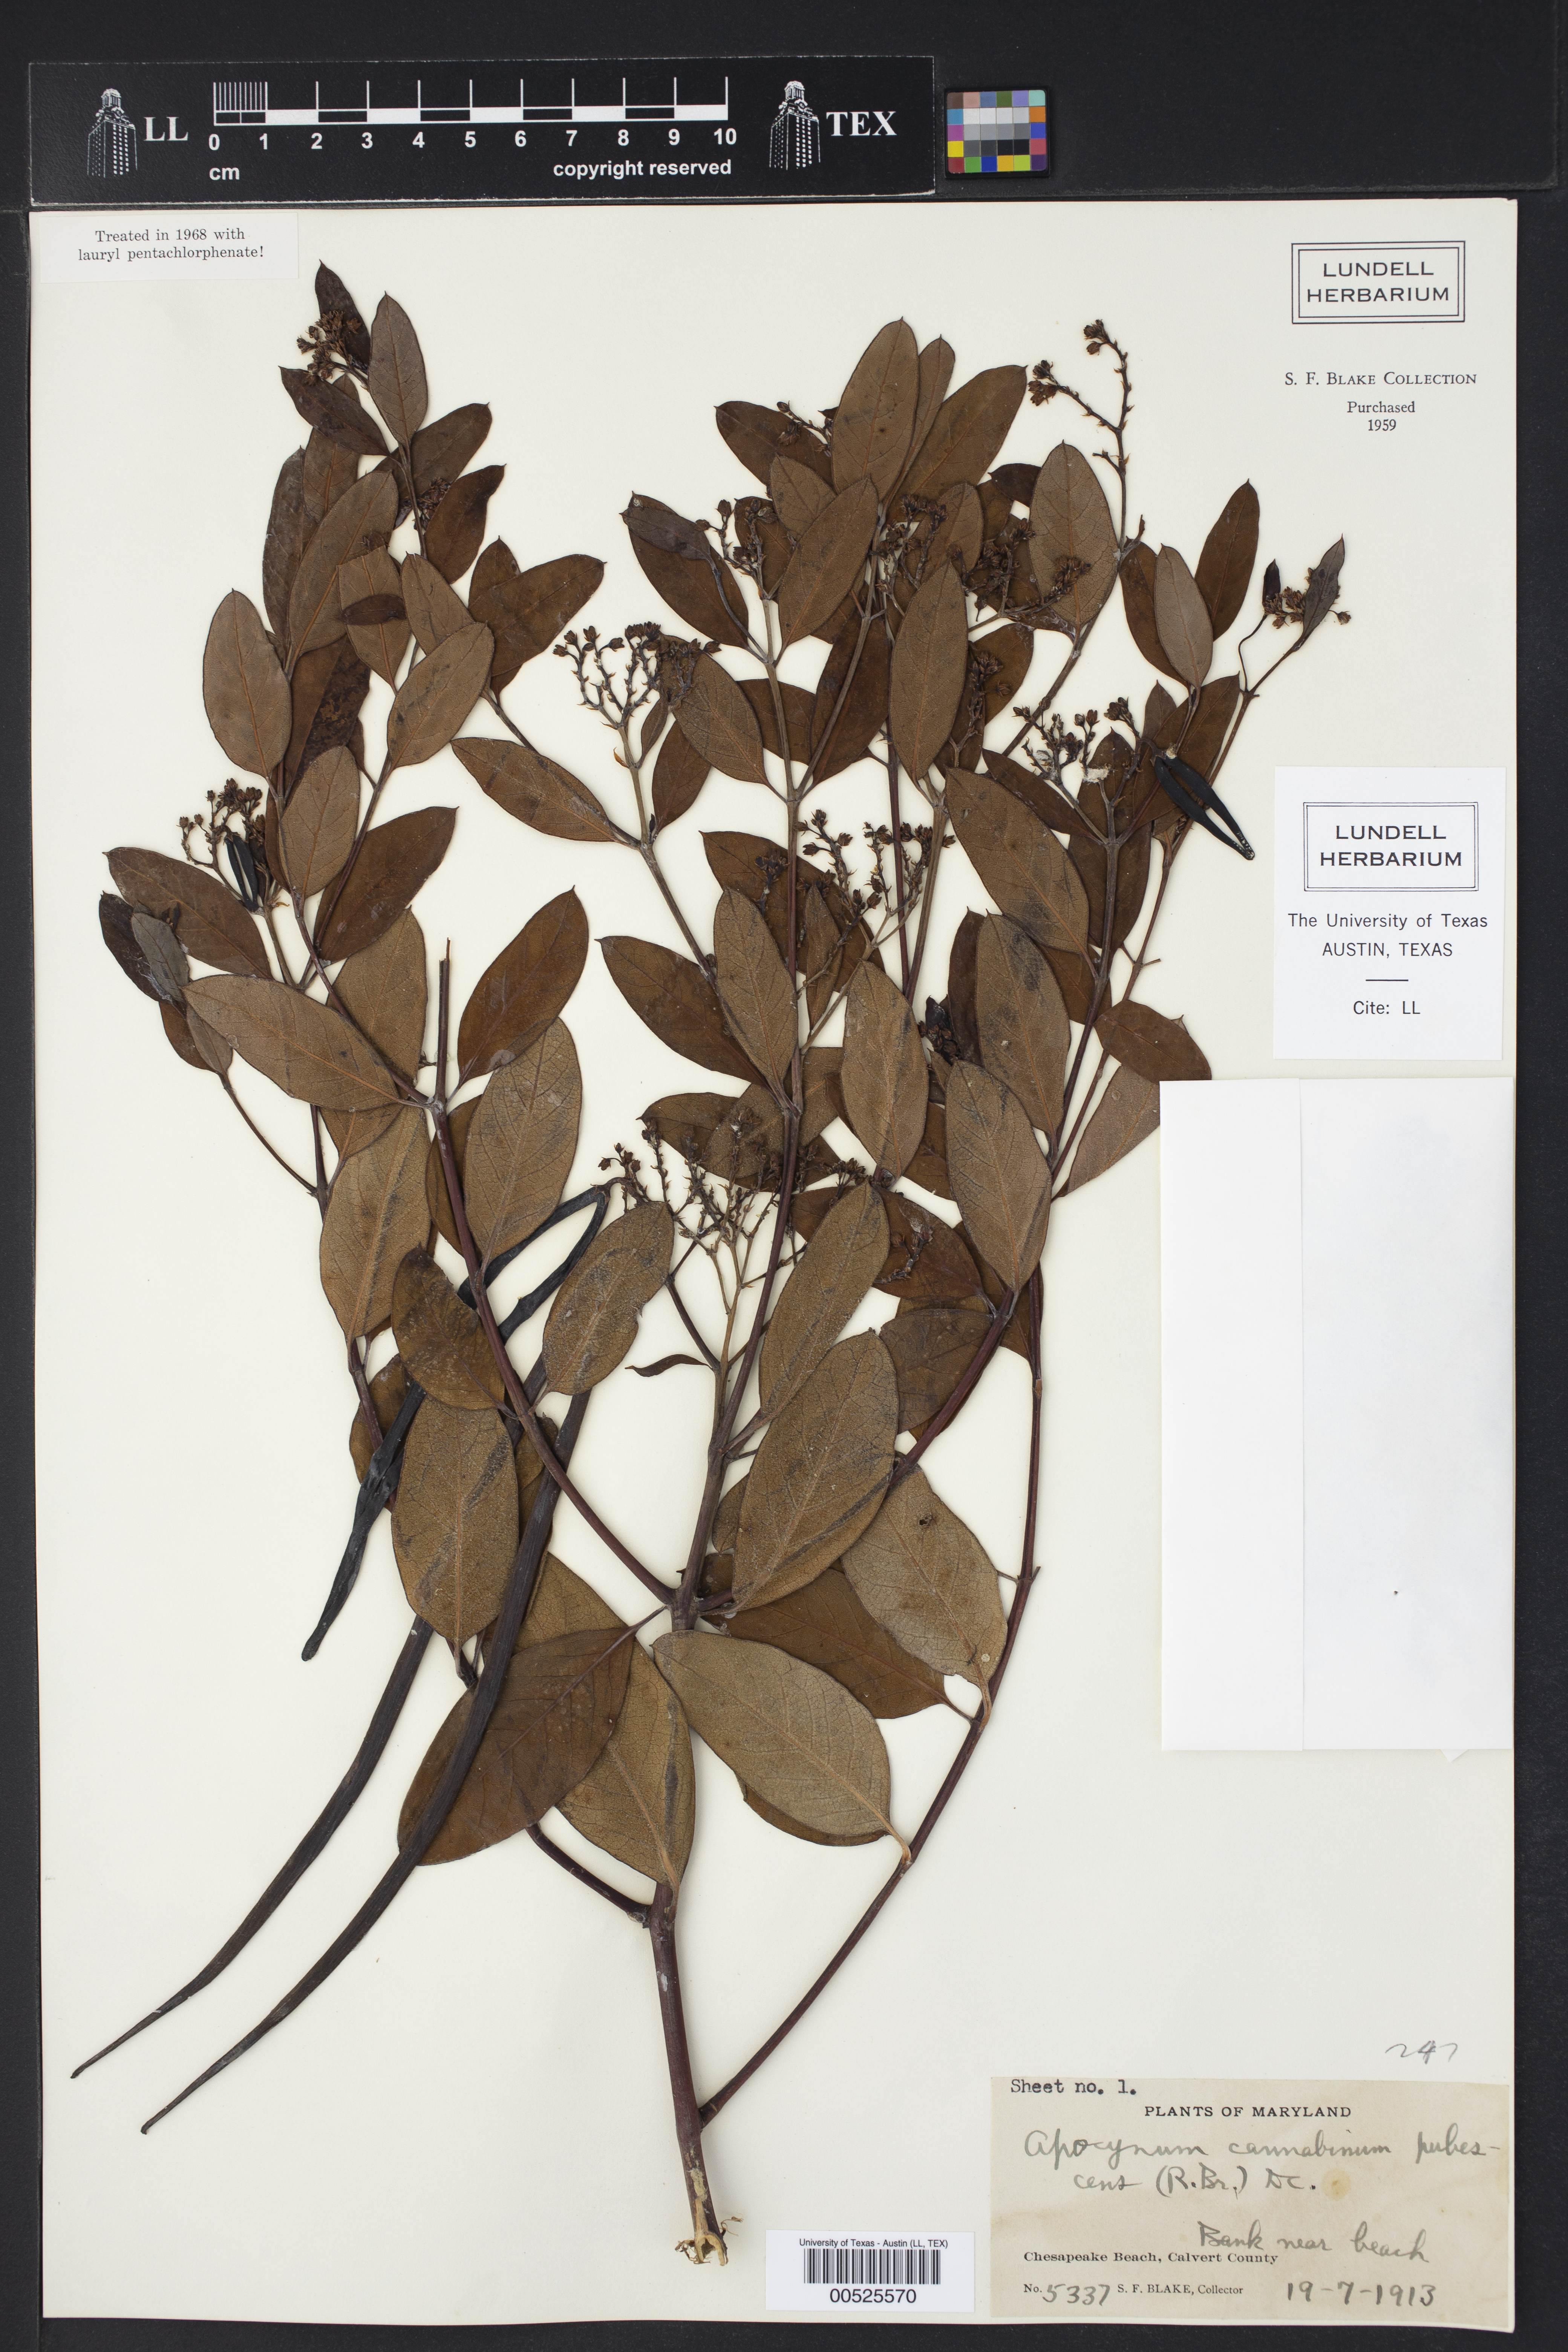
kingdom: Plantae
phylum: Tracheophyta
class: Magnoliopsida
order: Gentianales
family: Apocynaceae
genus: Apocynum
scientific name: Apocynum cannabinum
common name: Hemp dogbane
